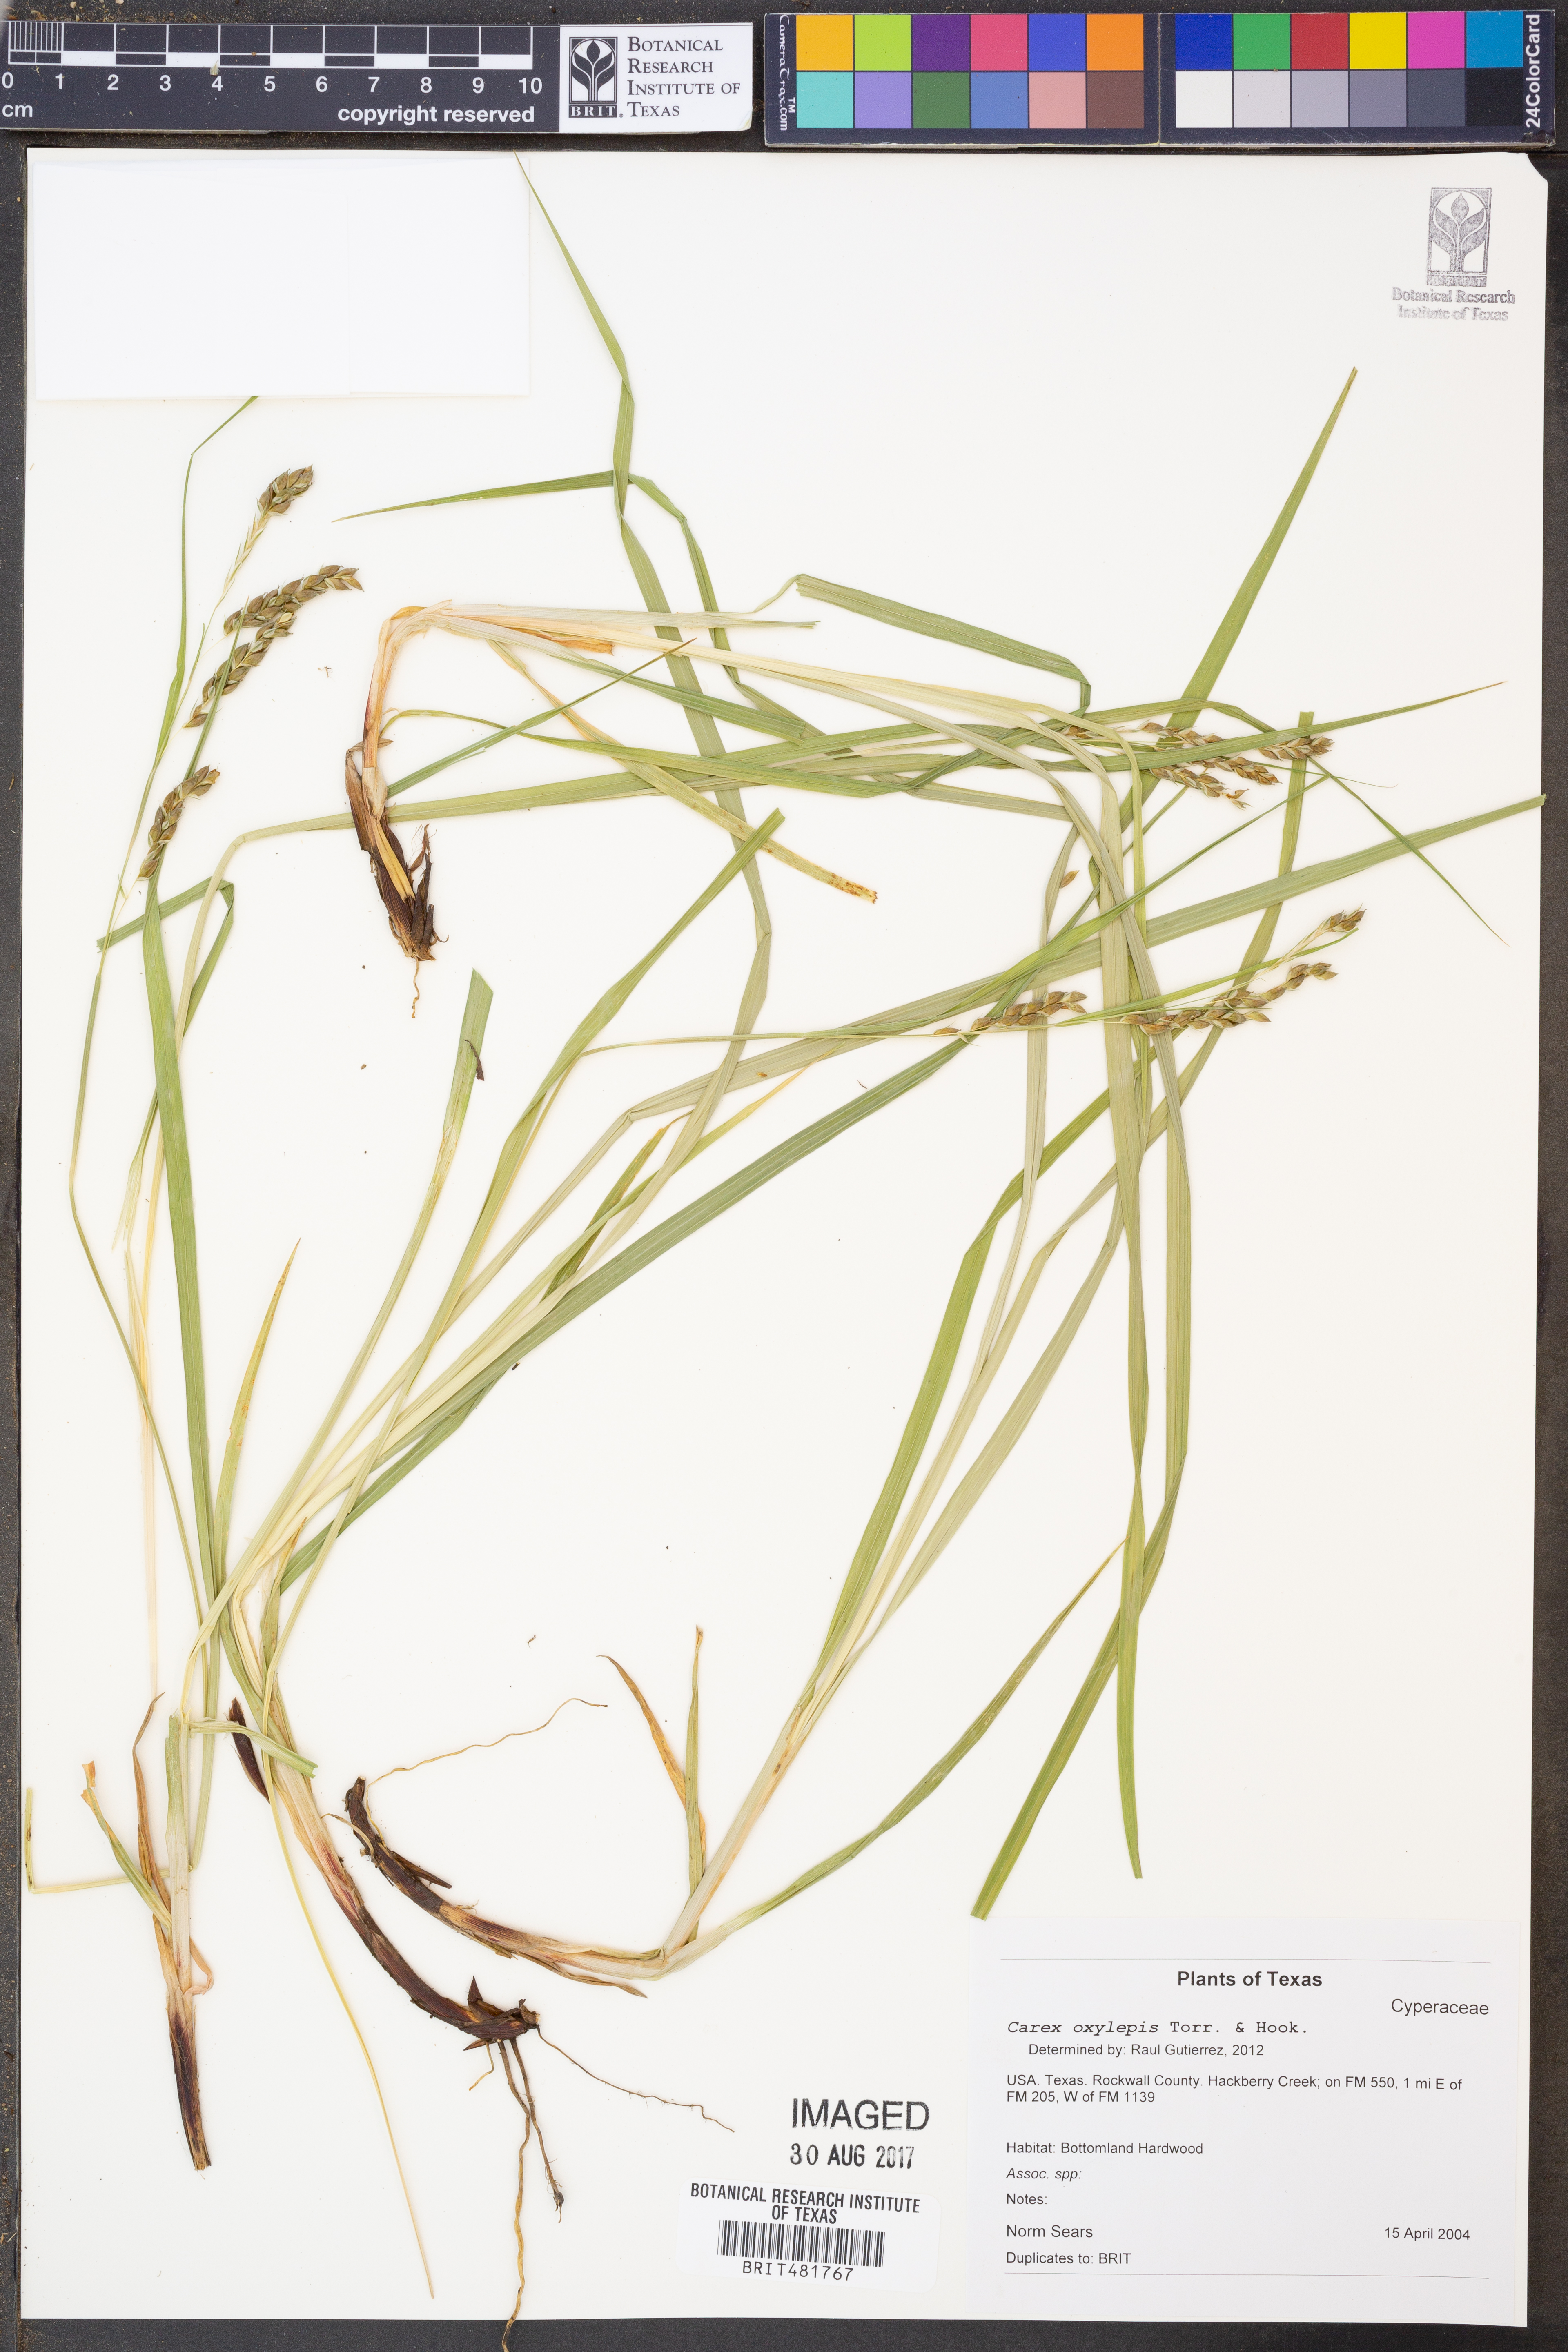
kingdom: Plantae
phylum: Tracheophyta
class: Liliopsida
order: Poales
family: Cyperaceae
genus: Carex
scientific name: Carex oxylepis
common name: Sharpscale sedge
